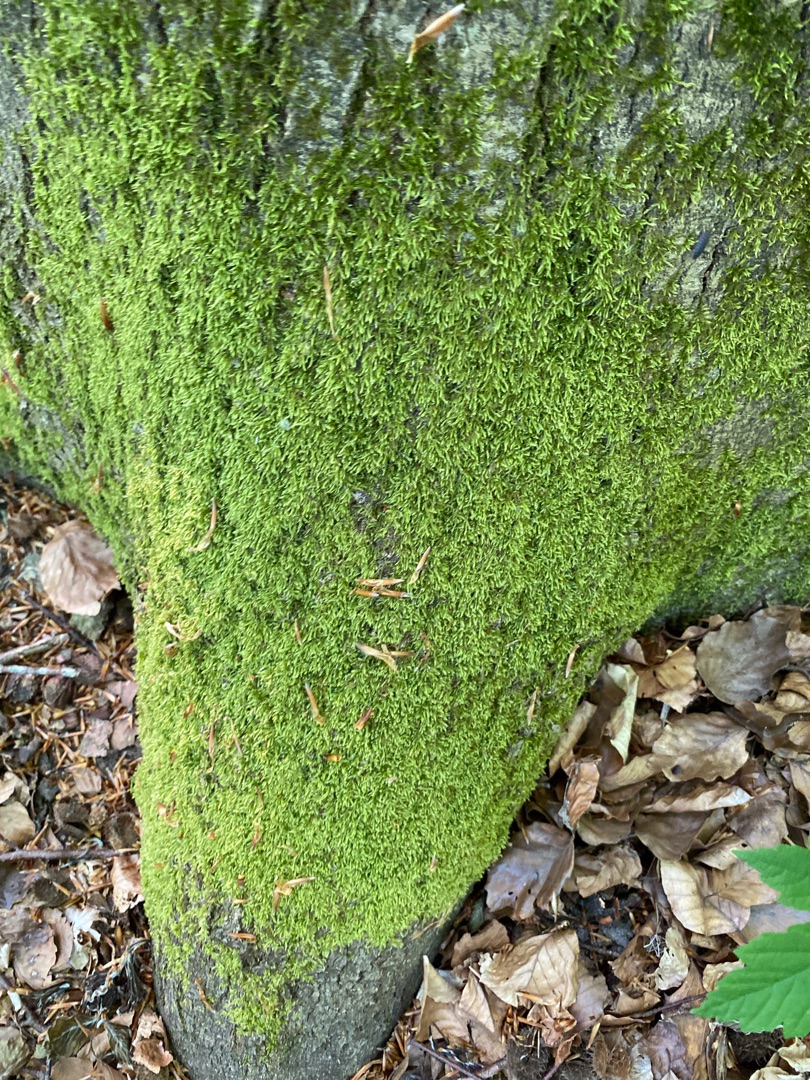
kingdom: Plantae
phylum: Bryophyta
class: Bryopsida
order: Hypnales
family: Hypnaceae
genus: Hypnum
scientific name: Hypnum
